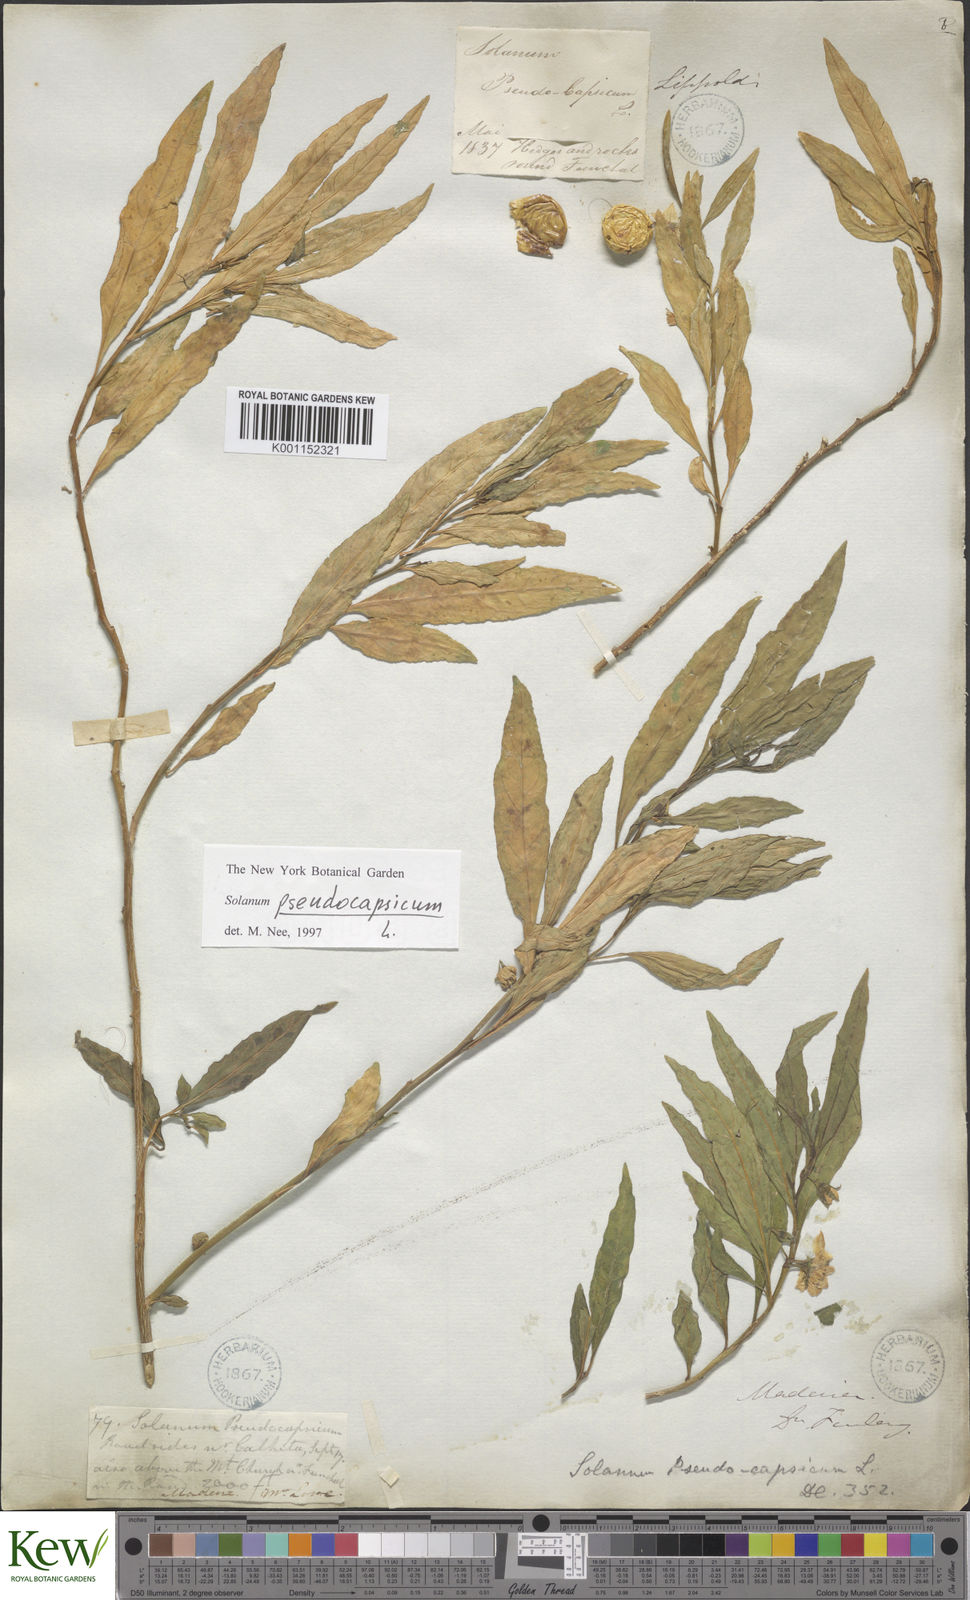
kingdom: Plantae
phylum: Tracheophyta
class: Magnoliopsida
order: Solanales
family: Solanaceae
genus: Solanum
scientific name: Solanum pseudocapsicum
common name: Jerusalem cherry
